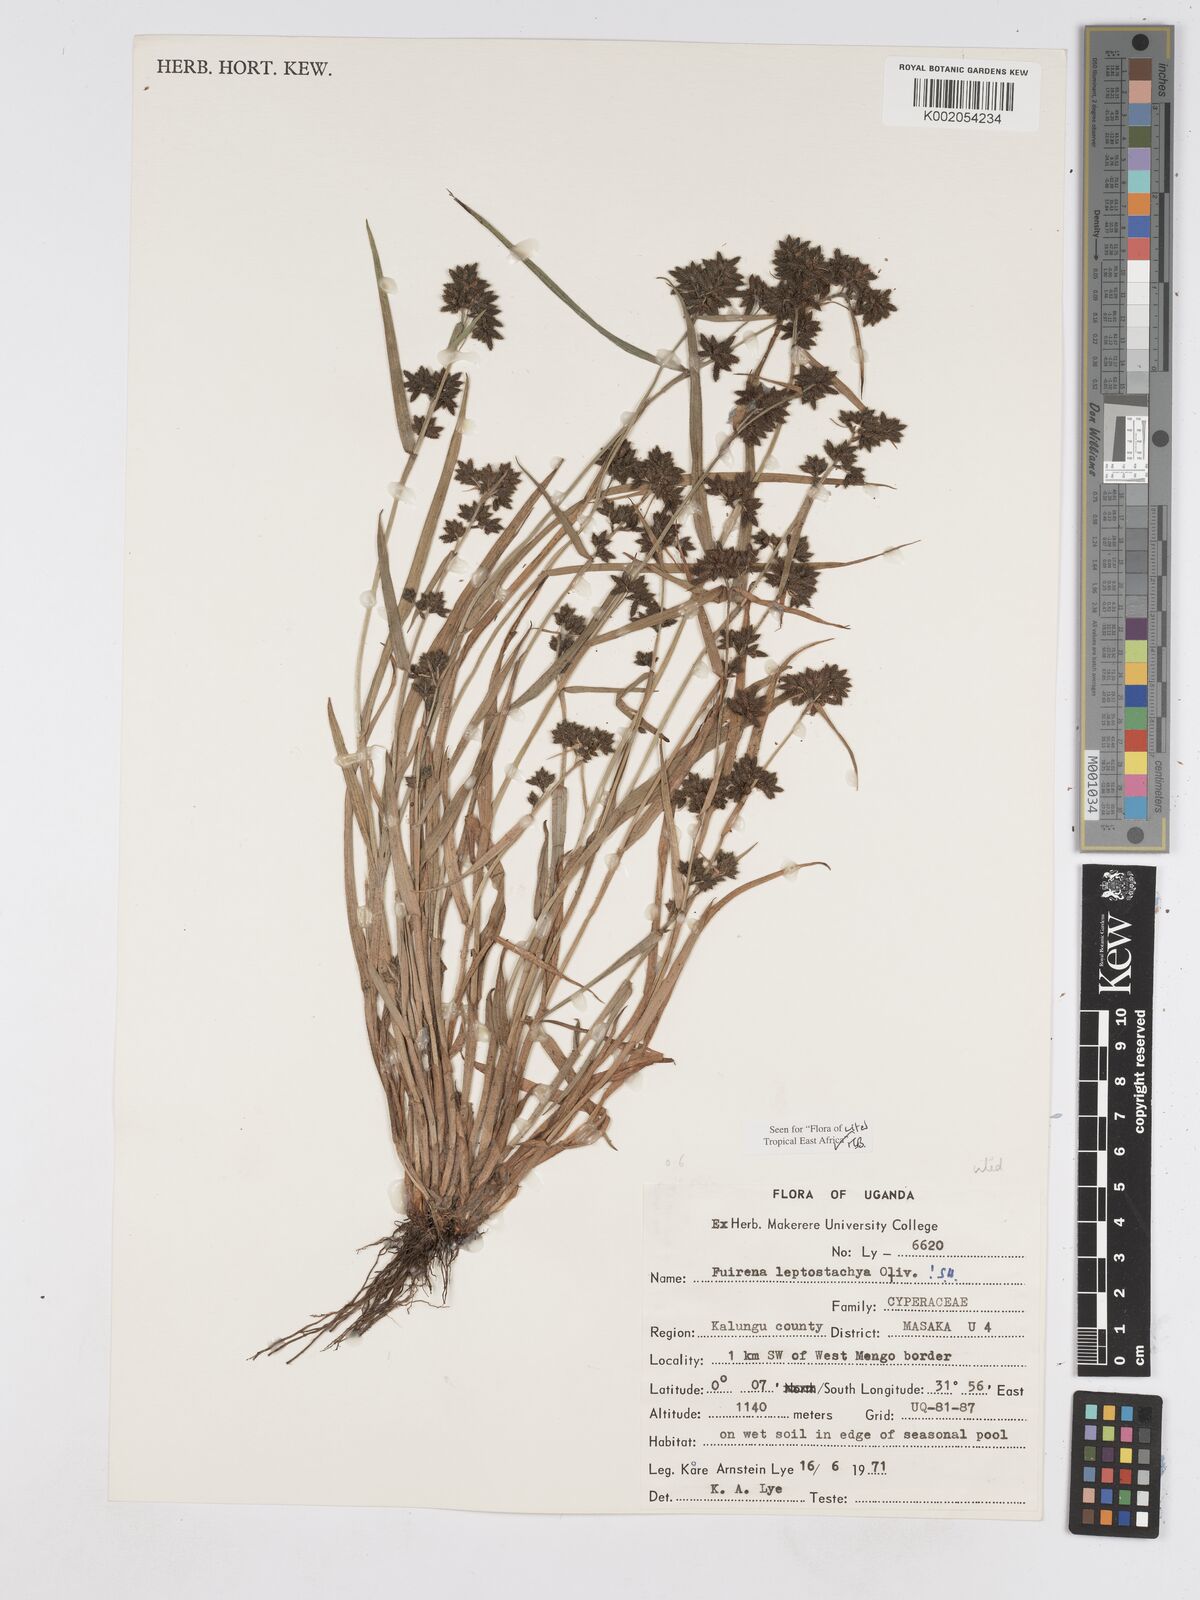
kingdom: Plantae
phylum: Tracheophyta
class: Liliopsida
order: Poales
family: Cyperaceae
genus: Fuirena
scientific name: Fuirena leptostachya
